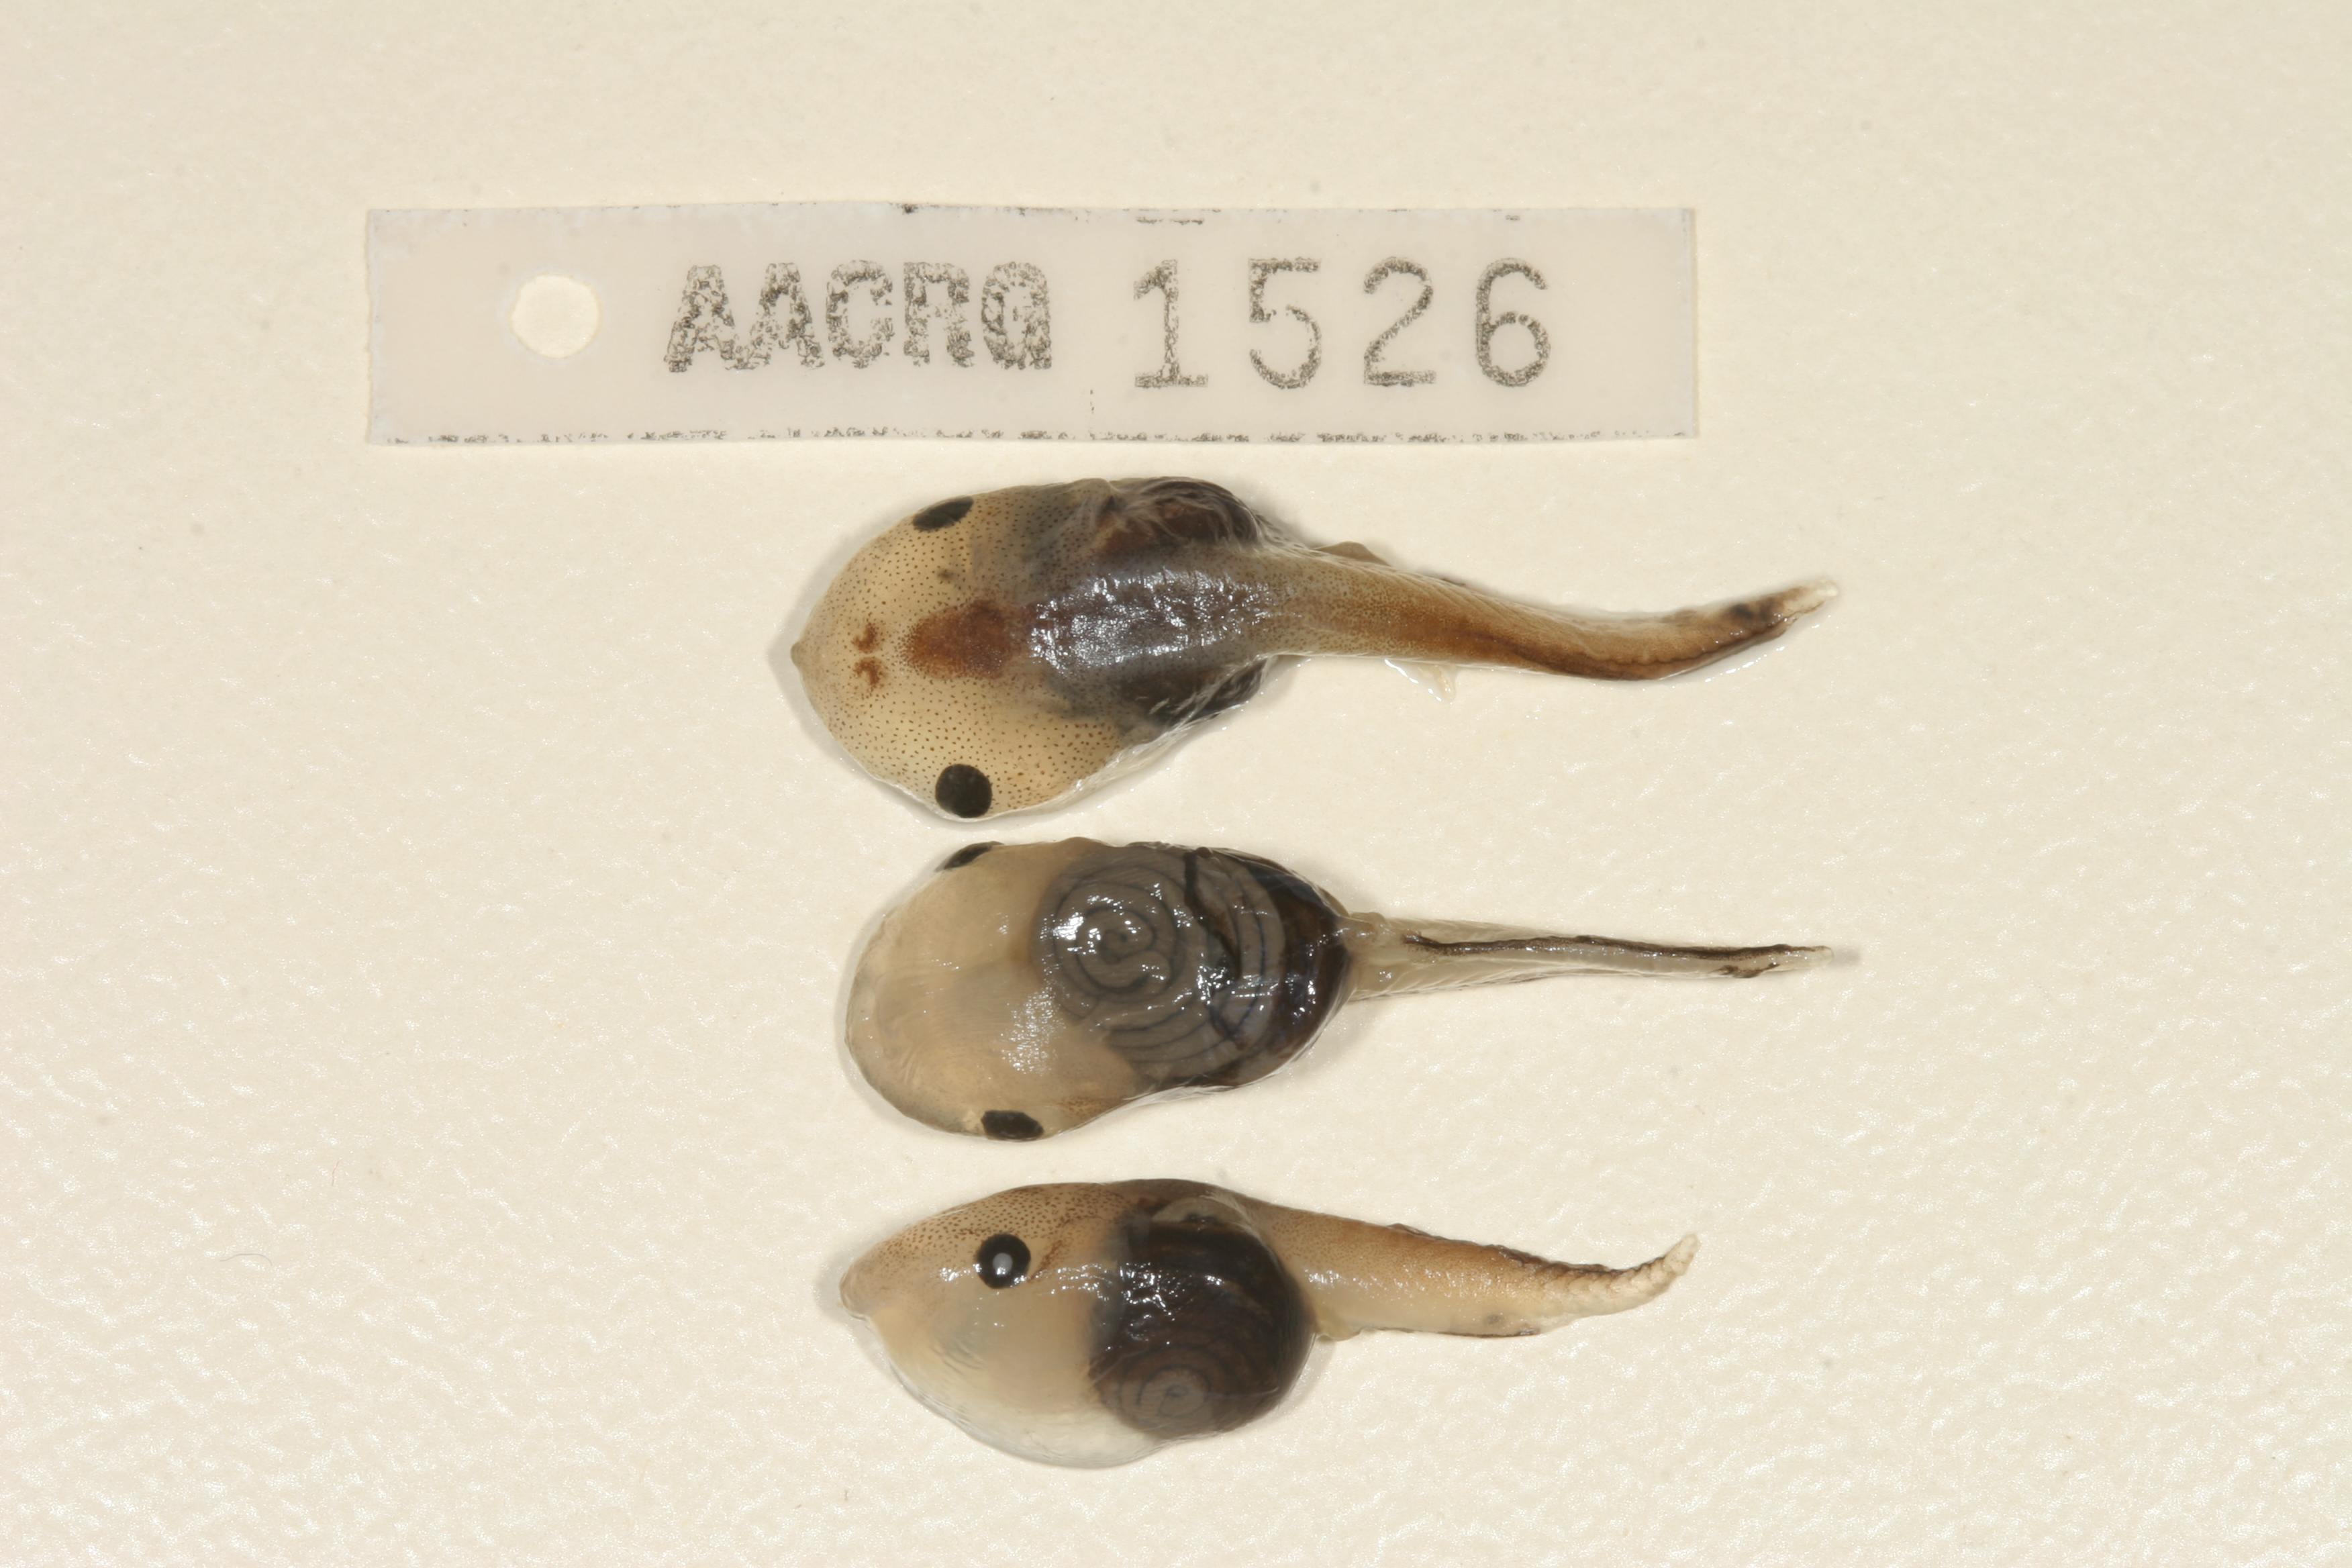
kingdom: Animalia
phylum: Chordata
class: Amphibia
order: Anura
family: Microhylidae
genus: Phrynomantis
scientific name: Phrynomantis bifasciatus
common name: Banded rubber frog
